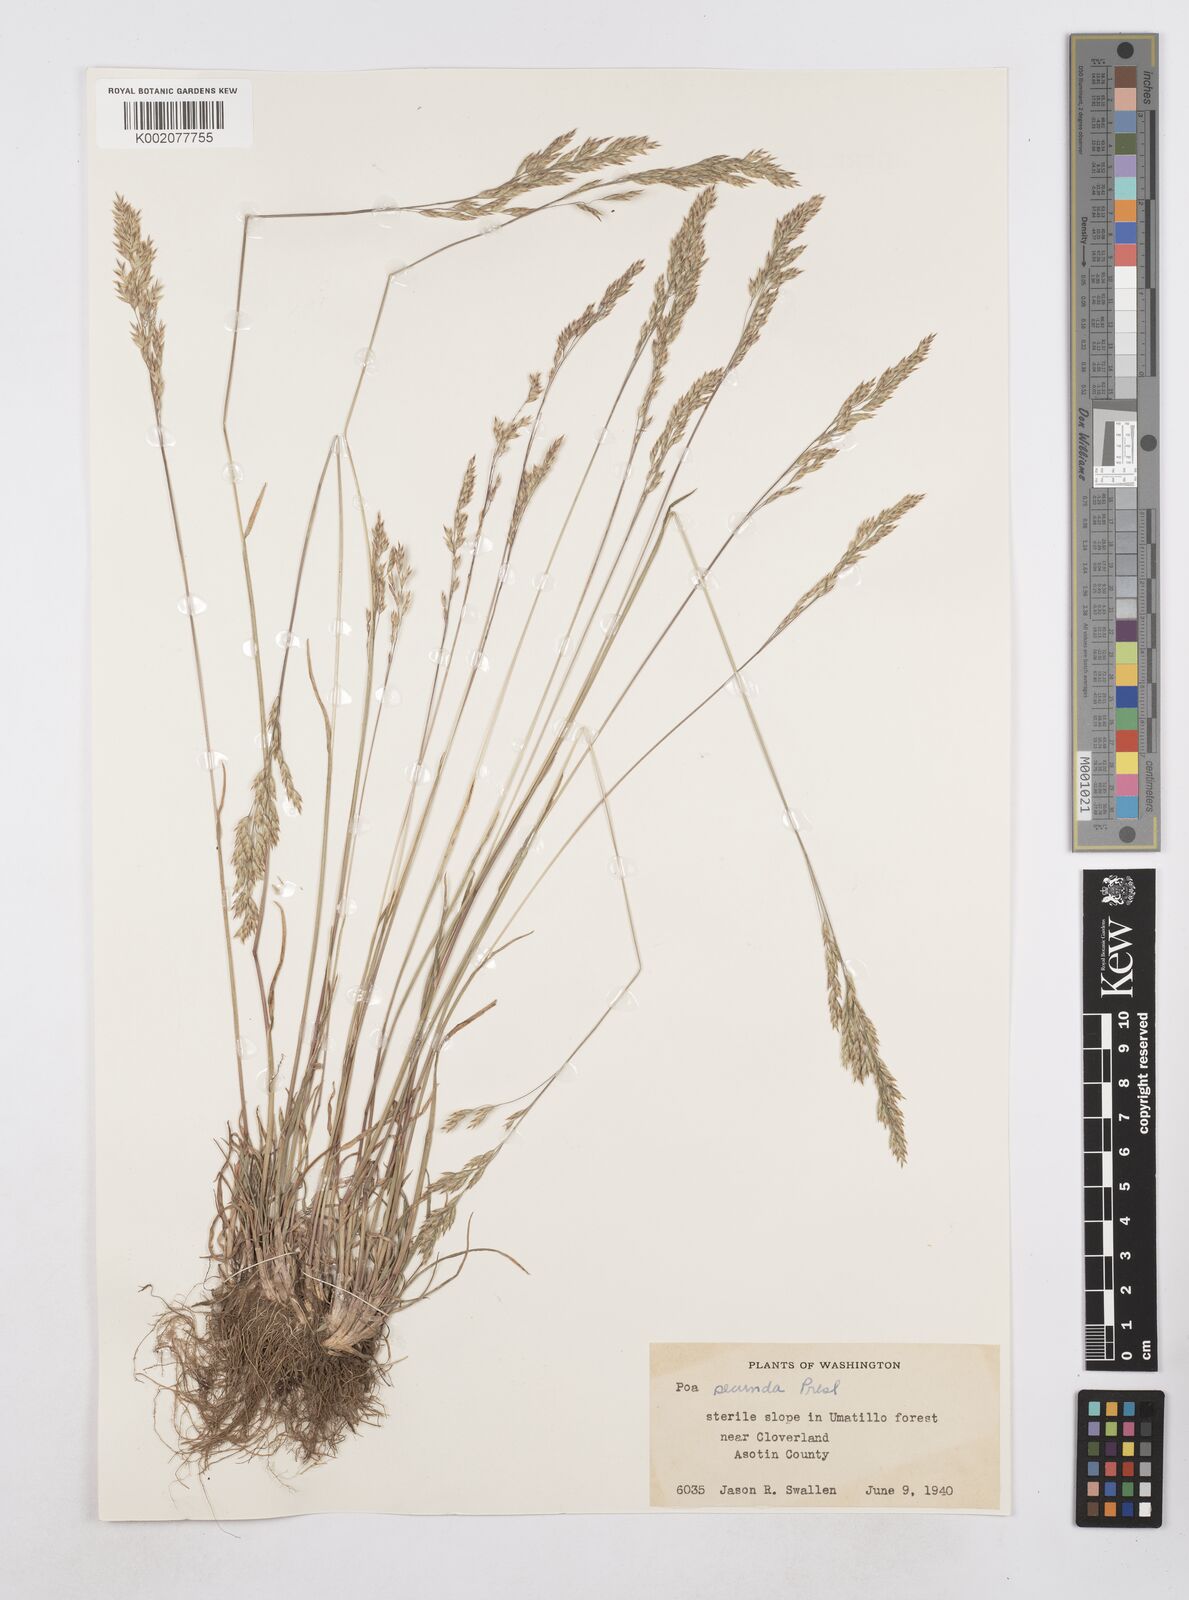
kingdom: Plantae
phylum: Tracheophyta
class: Liliopsida
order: Poales
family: Poaceae
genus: Poa
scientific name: Poa secunda
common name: Sandberg bluegrass
